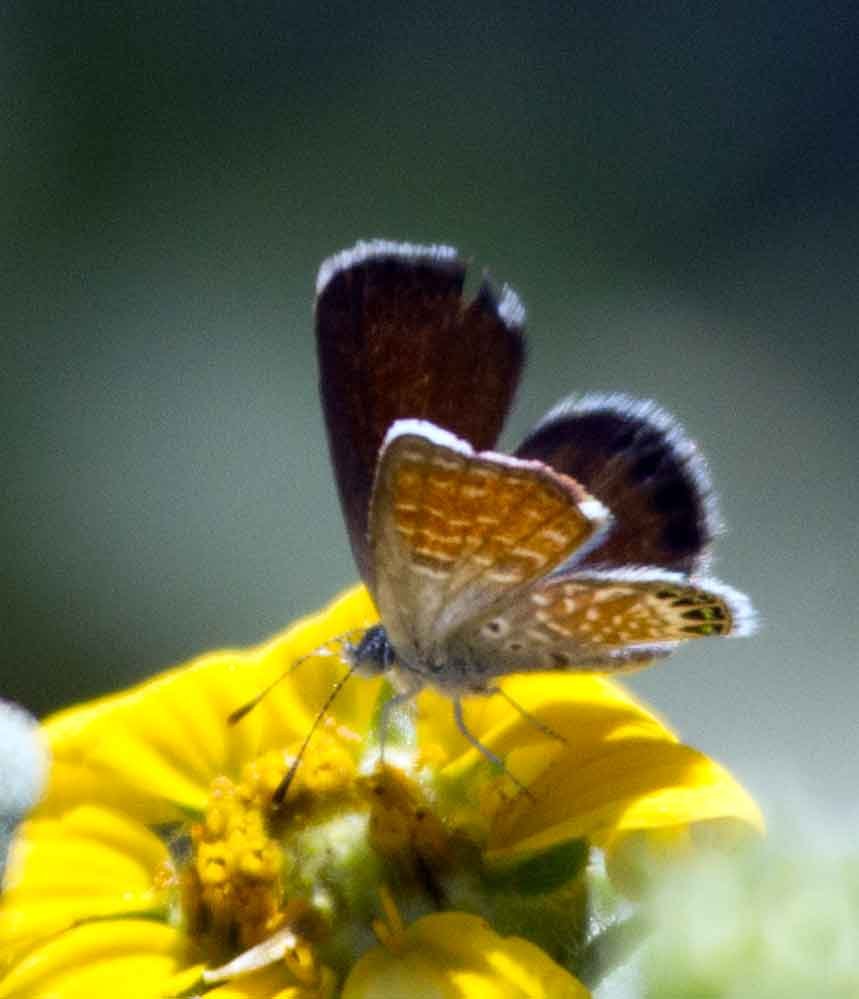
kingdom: Animalia
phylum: Arthropoda
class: Insecta
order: Lepidoptera
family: Lycaenidae
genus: Brephidium
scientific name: Brephidium exilis
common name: Western Pygmy-Blue
